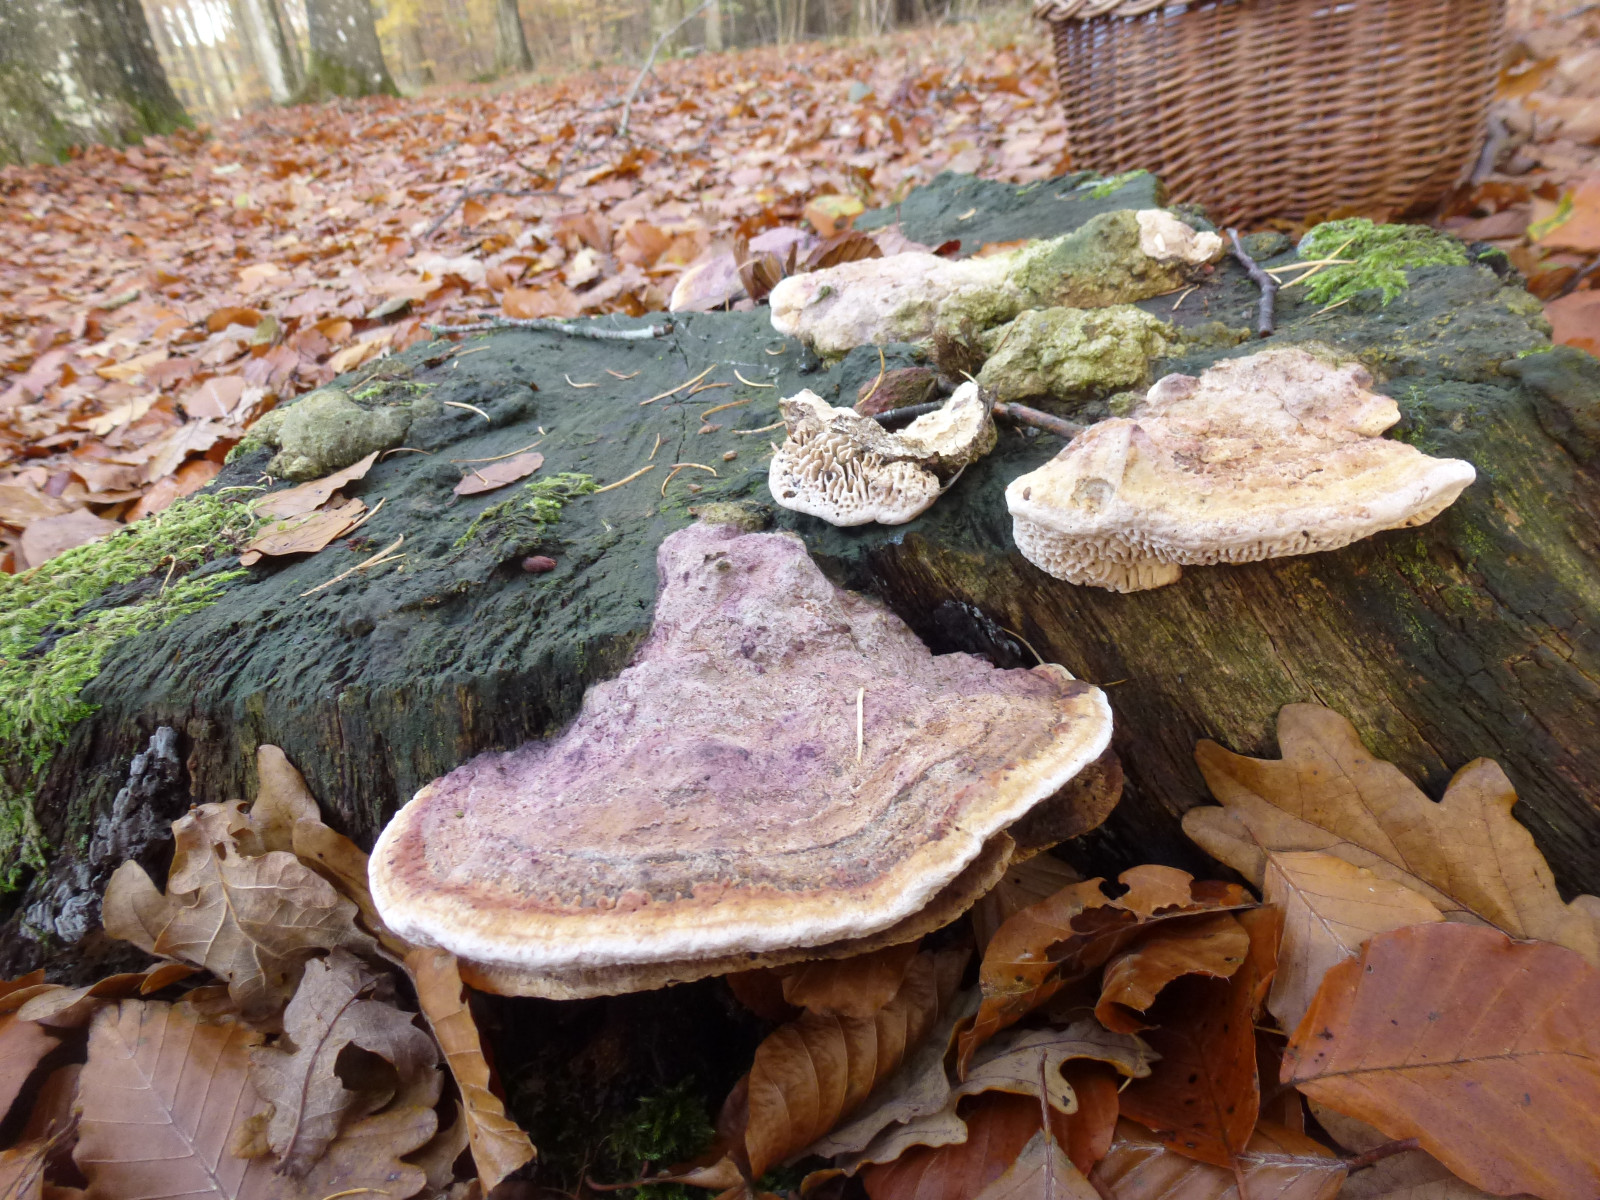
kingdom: Fungi
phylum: Basidiomycota
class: Agaricomycetes
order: Polyporales
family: Fomitopsidaceae
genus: Daedalea
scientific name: Daedalea quercina
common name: ege-labyrintsvamp
